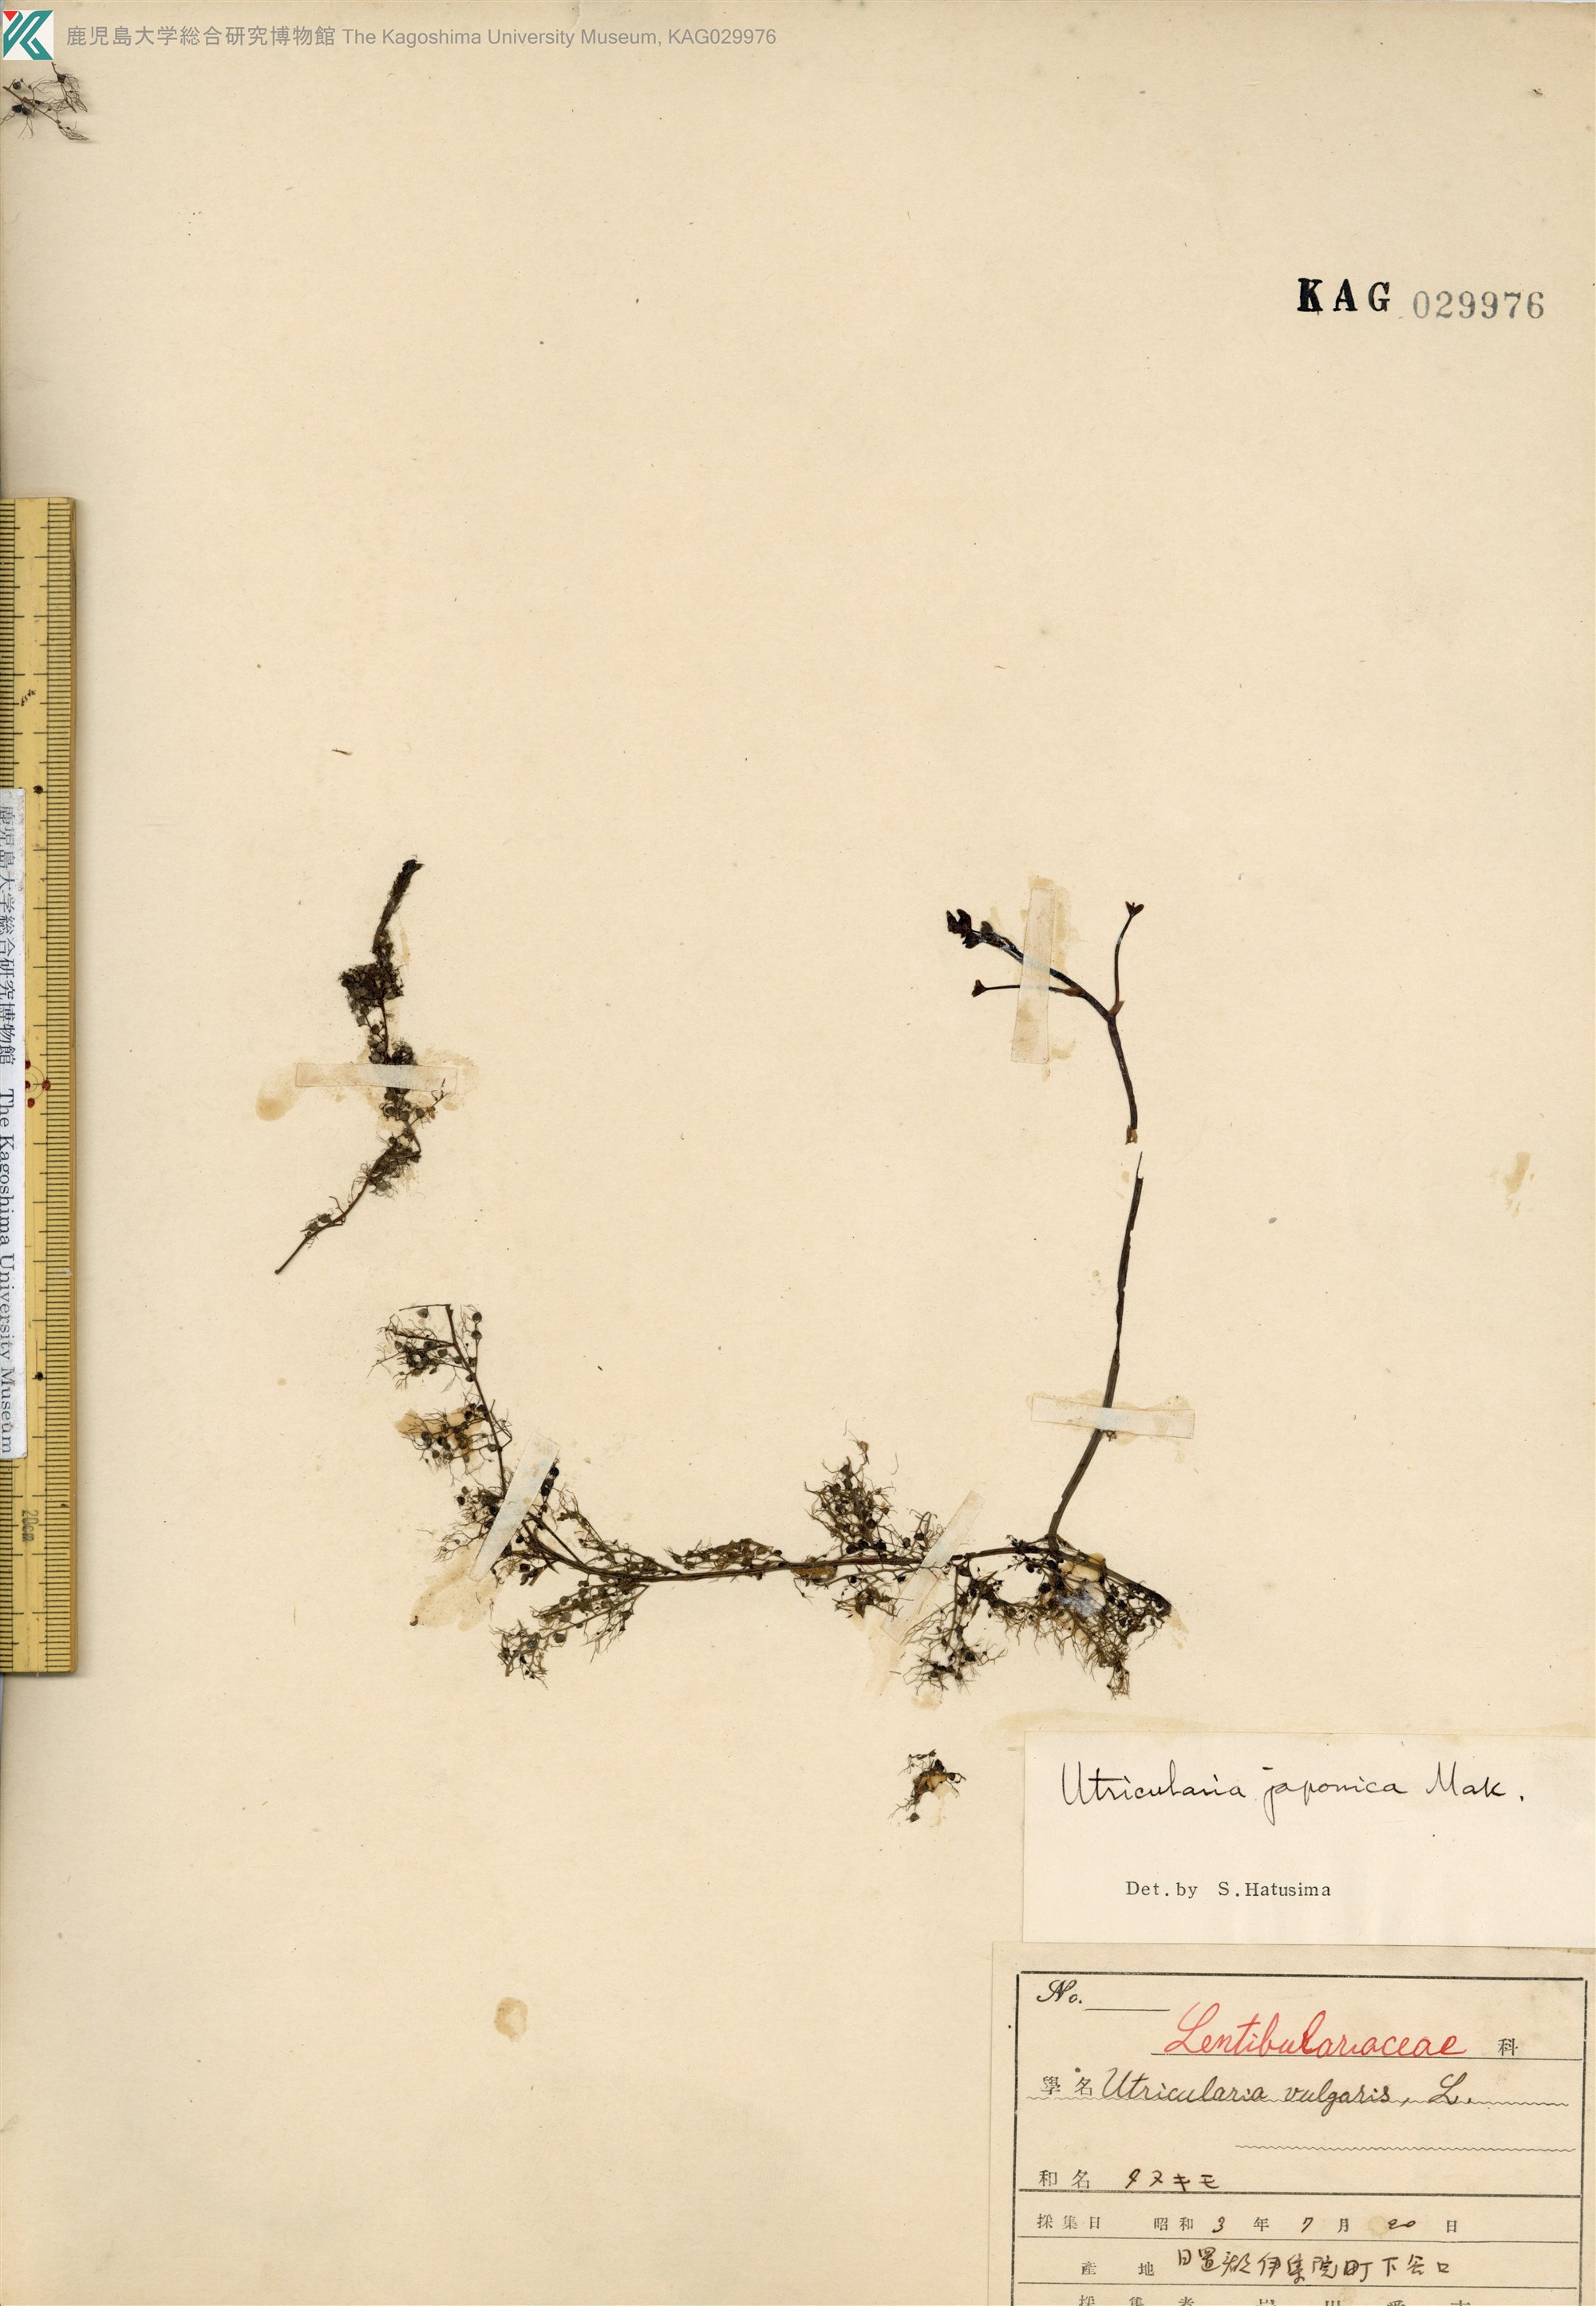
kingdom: Plantae
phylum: Tracheophyta
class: Magnoliopsida
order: Lamiales
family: Lentibulariaceae
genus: Utricularia
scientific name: Utricularia japonica
